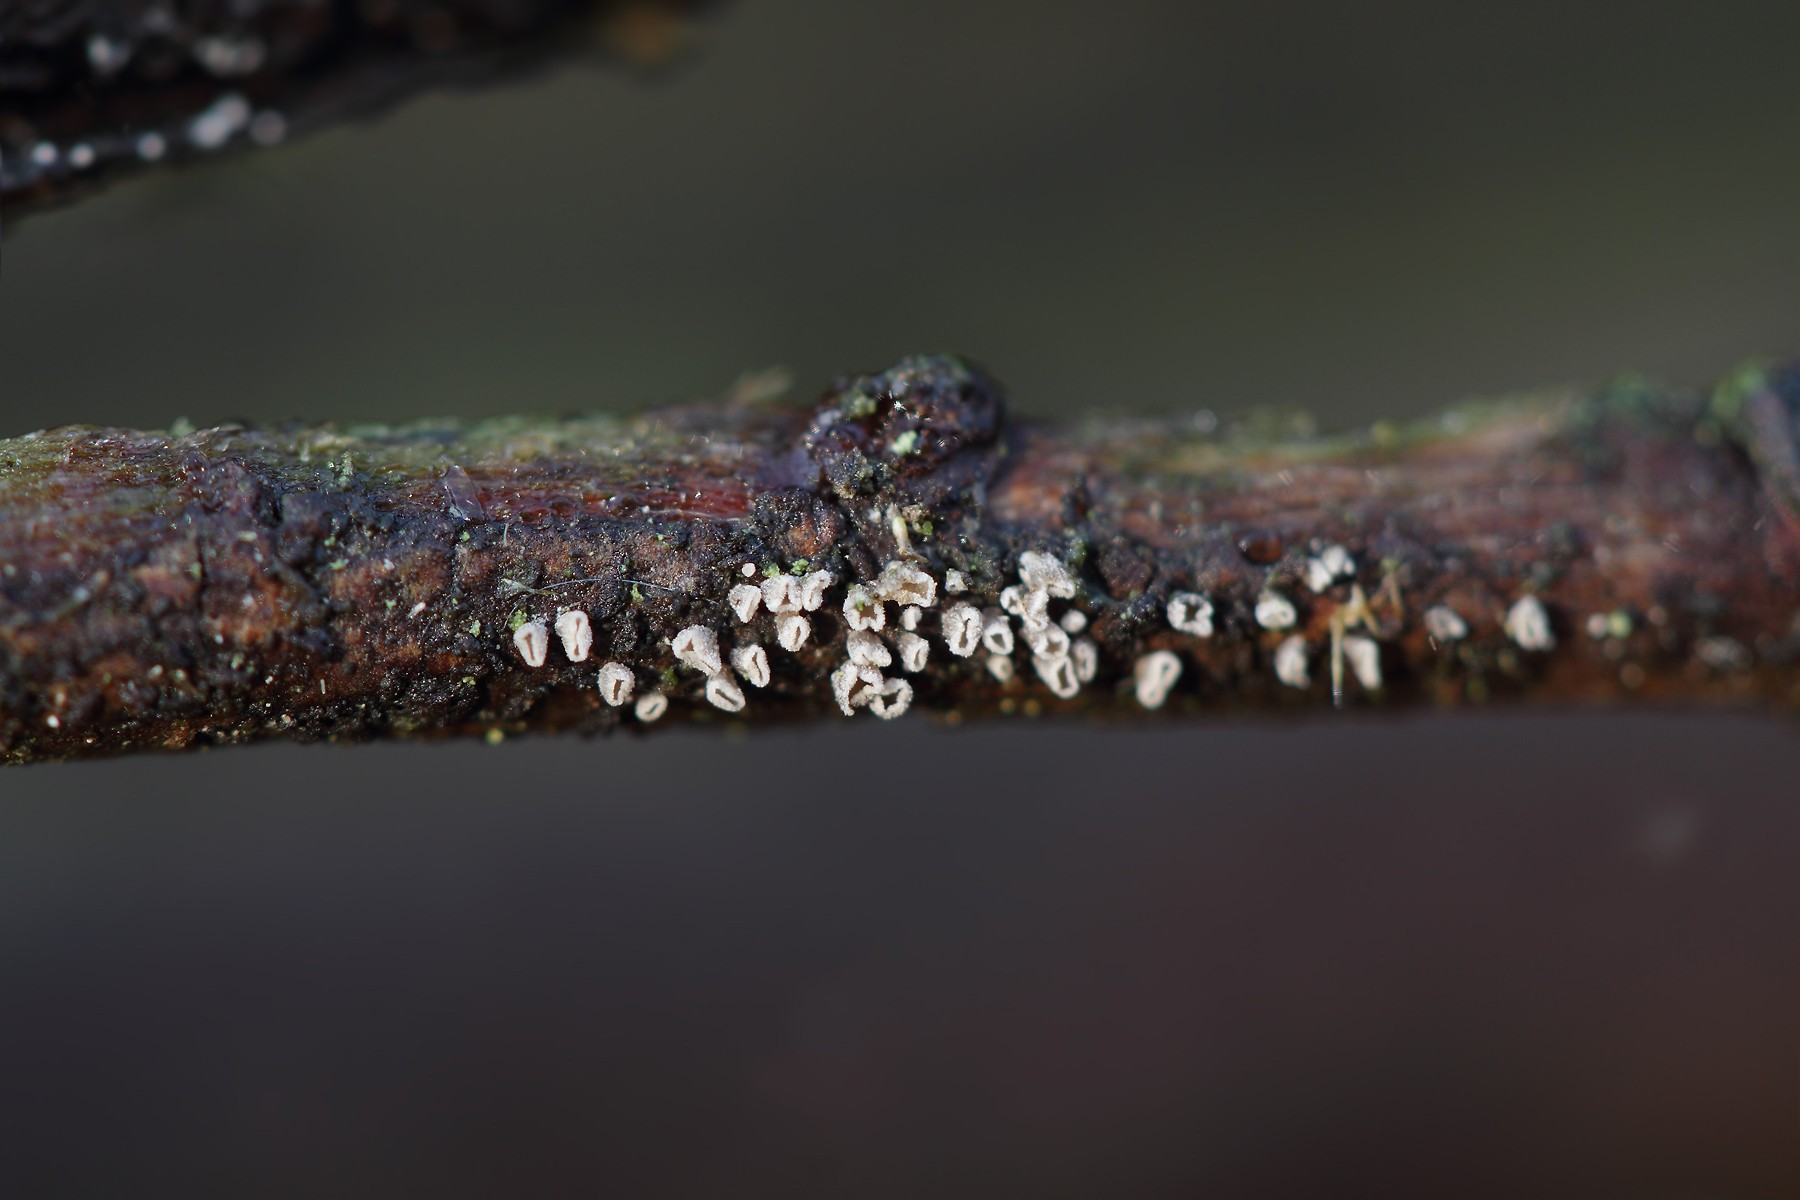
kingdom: Fungi
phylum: Basidiomycota
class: Agaricomycetes
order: Agaricales
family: Pleurotaceae
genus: Resupinatus
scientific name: Resupinatus griseopallidus
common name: ene-barkhat
